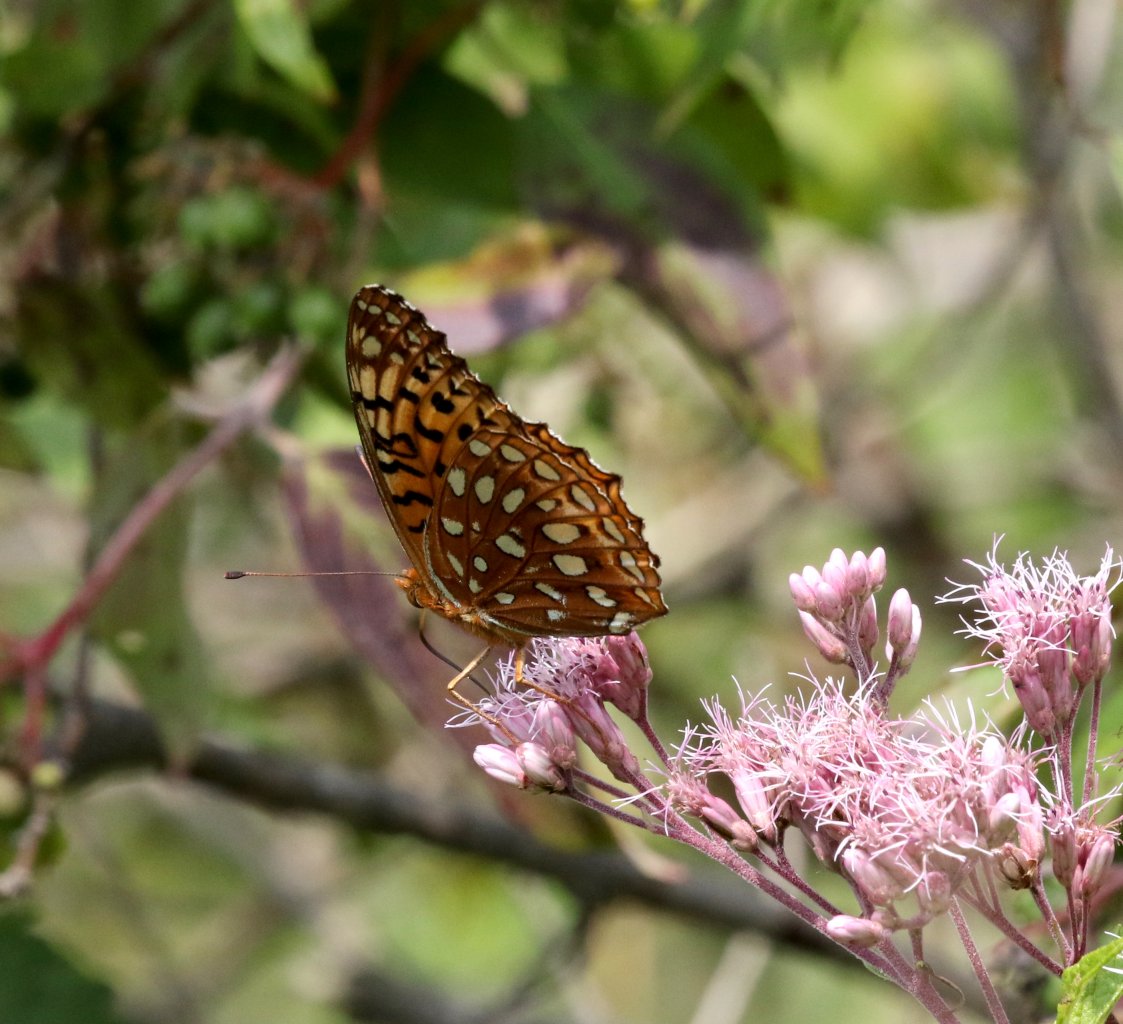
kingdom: Animalia
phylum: Arthropoda
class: Insecta
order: Lepidoptera
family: Nymphalidae
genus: Speyeria
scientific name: Speyeria aphrodite
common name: Aphrodite Fritillary
